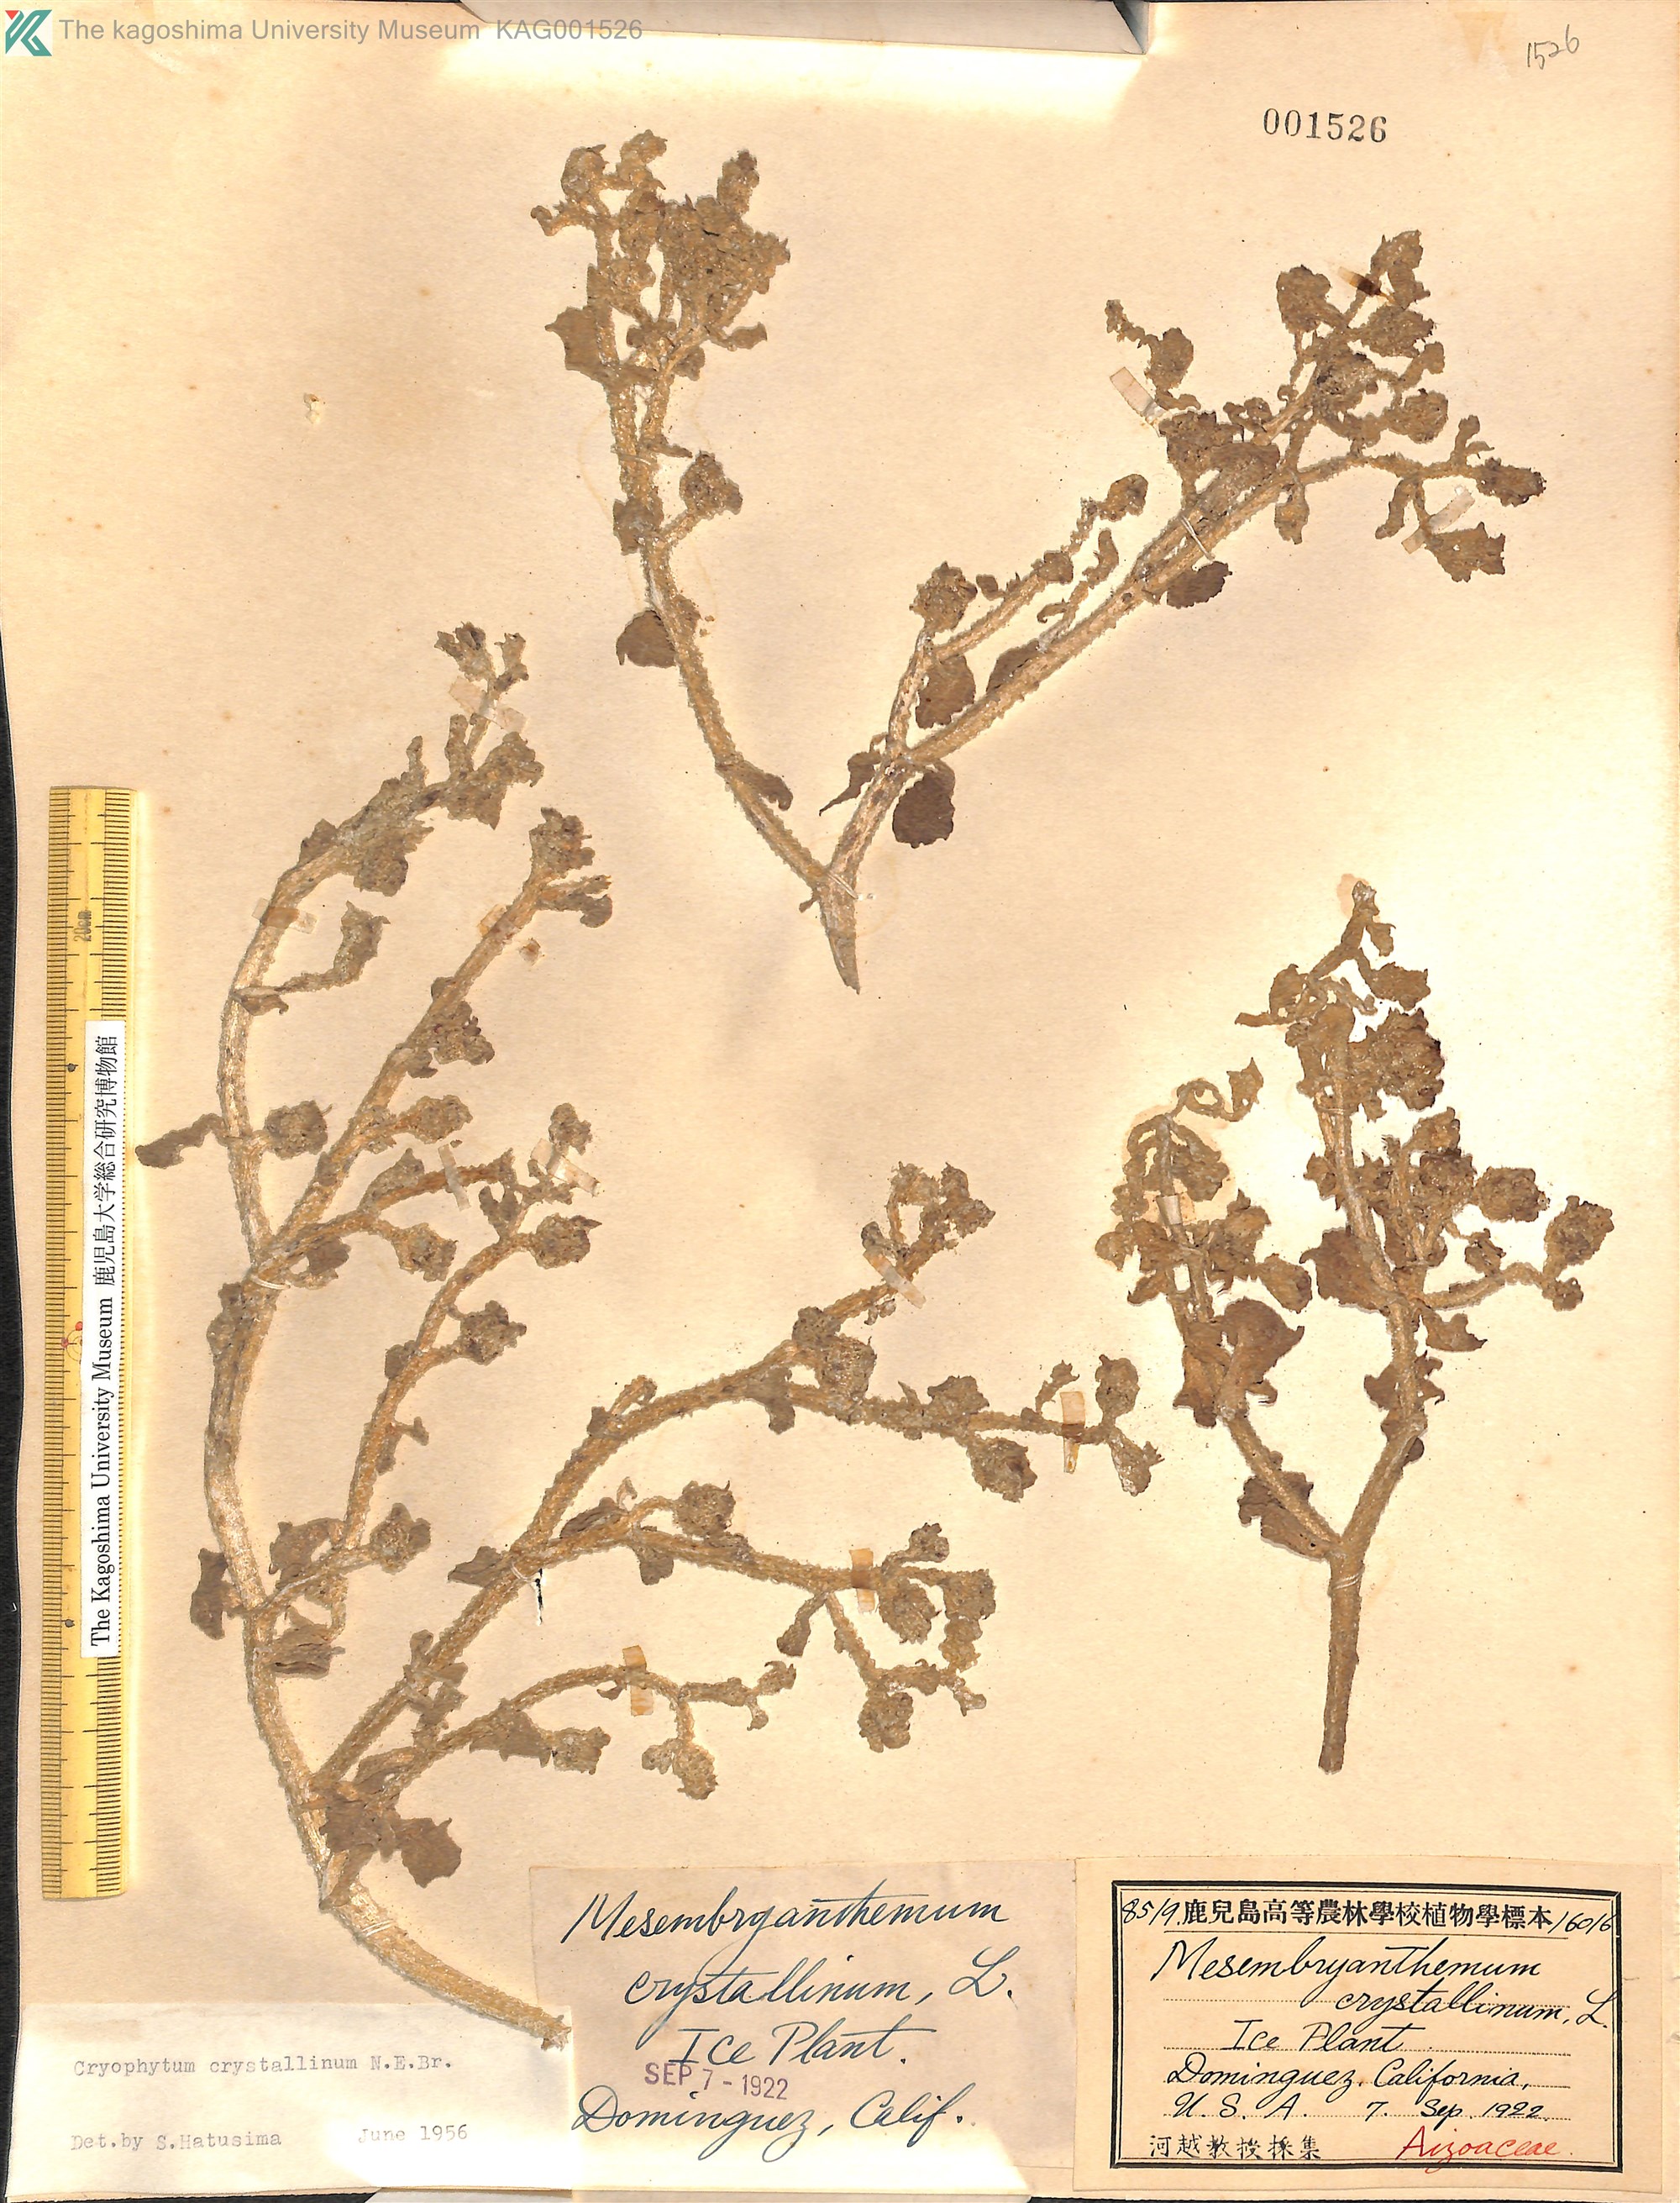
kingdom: Plantae
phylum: Tracheophyta
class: Magnoliopsida
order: Caryophyllales
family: Aizoaceae
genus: Mesembryanthemum
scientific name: Mesembryanthemum crystallinum
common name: Common iceplant
